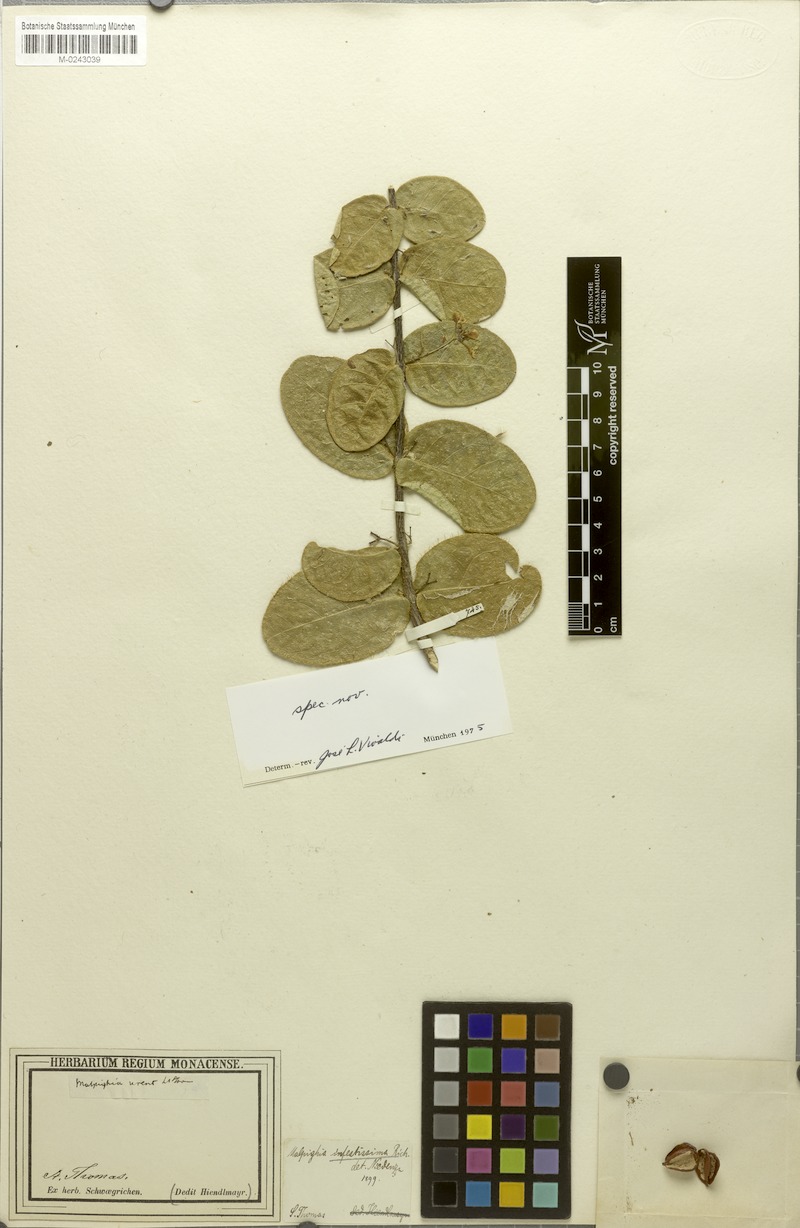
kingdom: Plantae
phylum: Tracheophyta
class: Magnoliopsida
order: Malpighiales
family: Malpighiaceae
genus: Malpighia
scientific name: Malpighia infestissima
